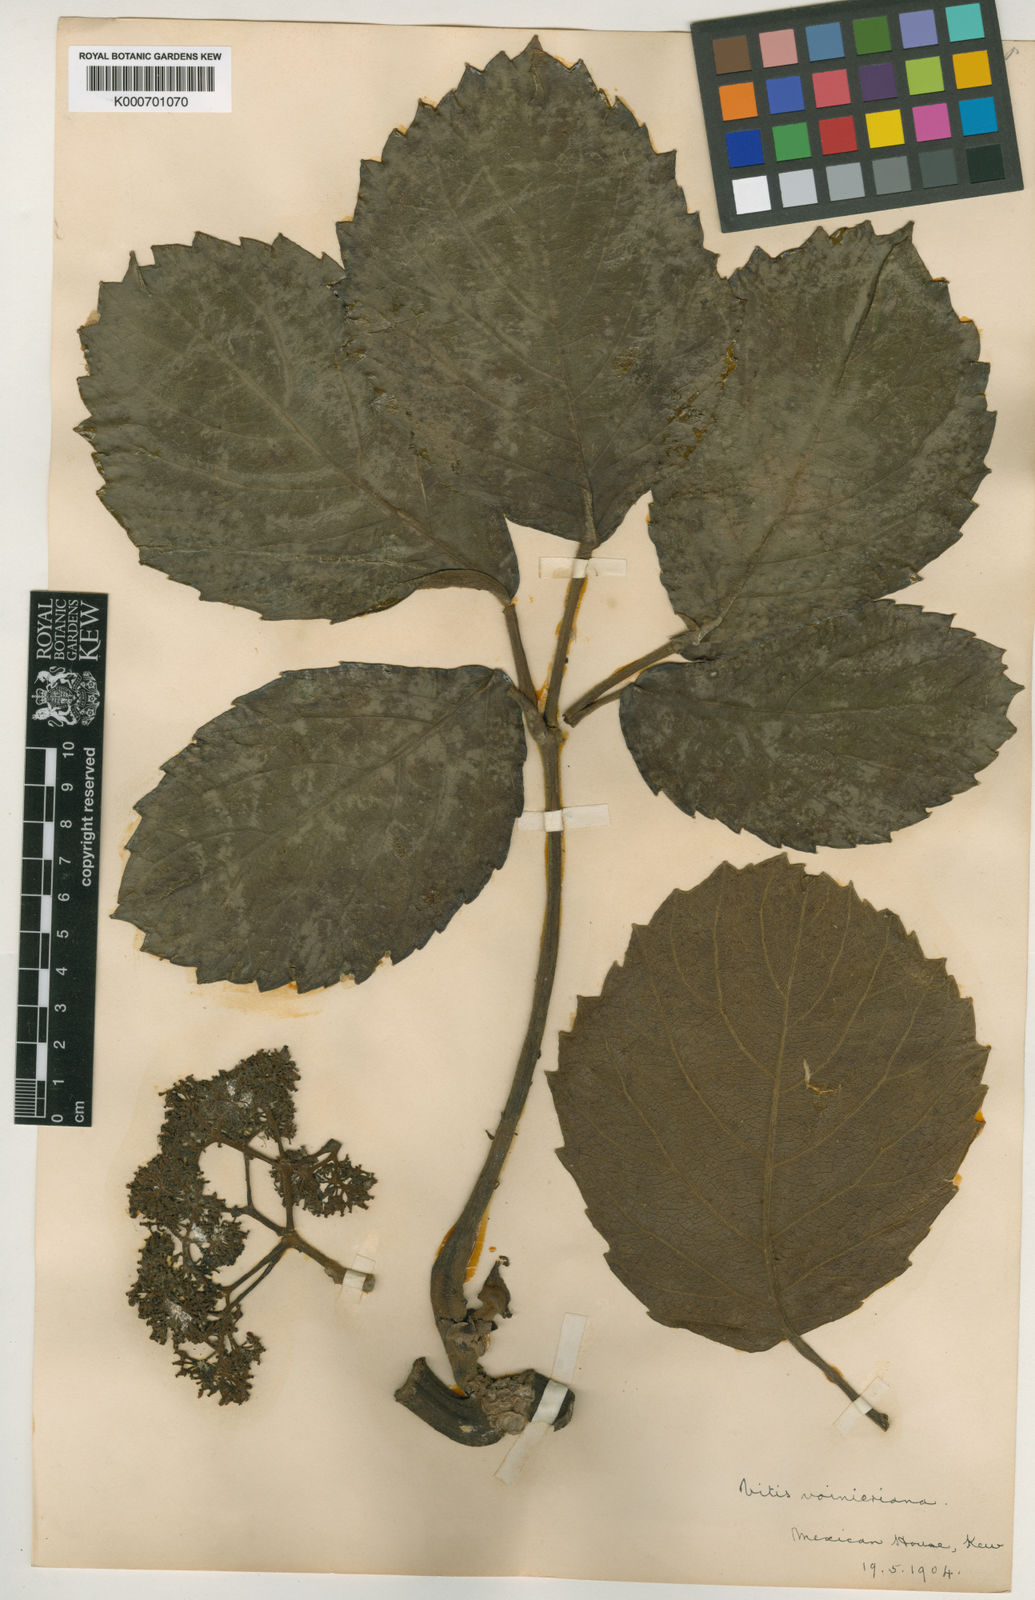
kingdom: Plantae
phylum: Tracheophyta
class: Magnoliopsida
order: Vitales
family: Vitaceae
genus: Tetrastigma
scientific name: Tetrastigma voinierianum
